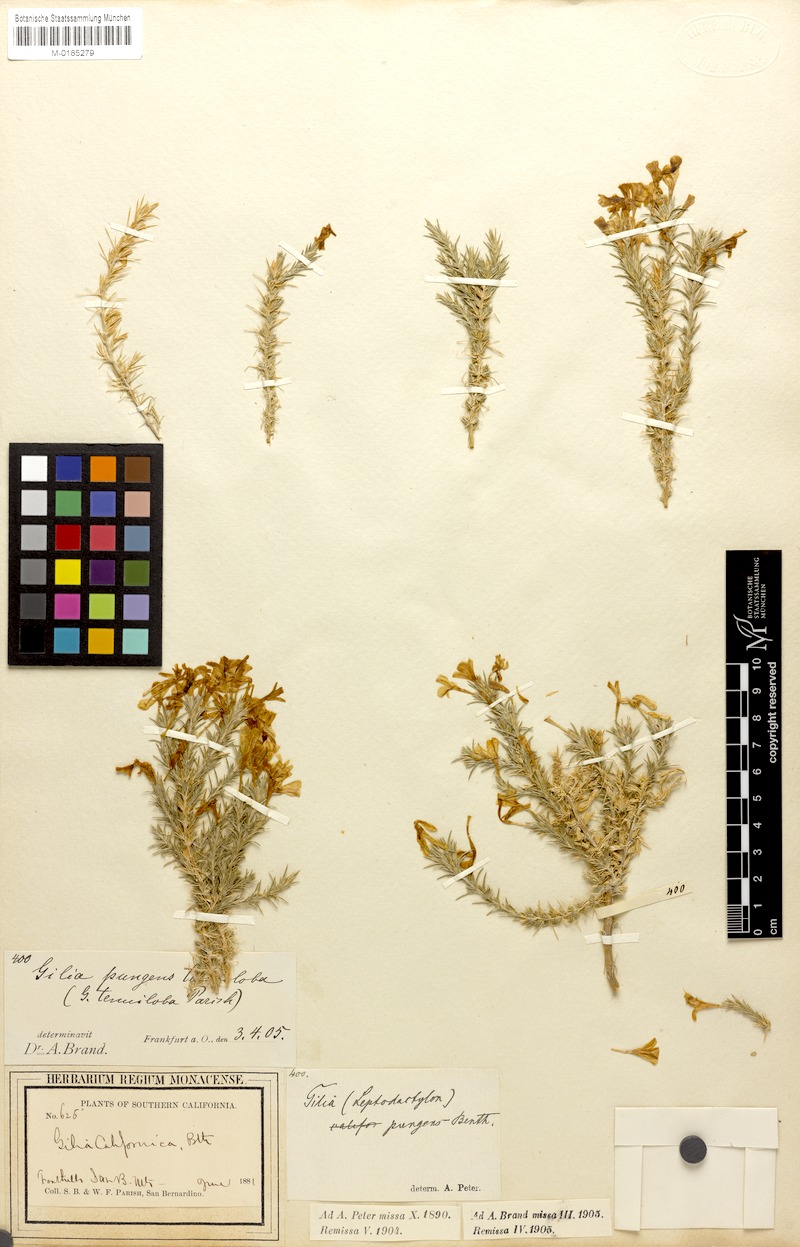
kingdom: Plantae
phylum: Tracheophyta
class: Magnoliopsida
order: Ericales
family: Polemoniaceae
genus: Linanthus
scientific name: Linanthus pungens
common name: Granite prickly phlox
